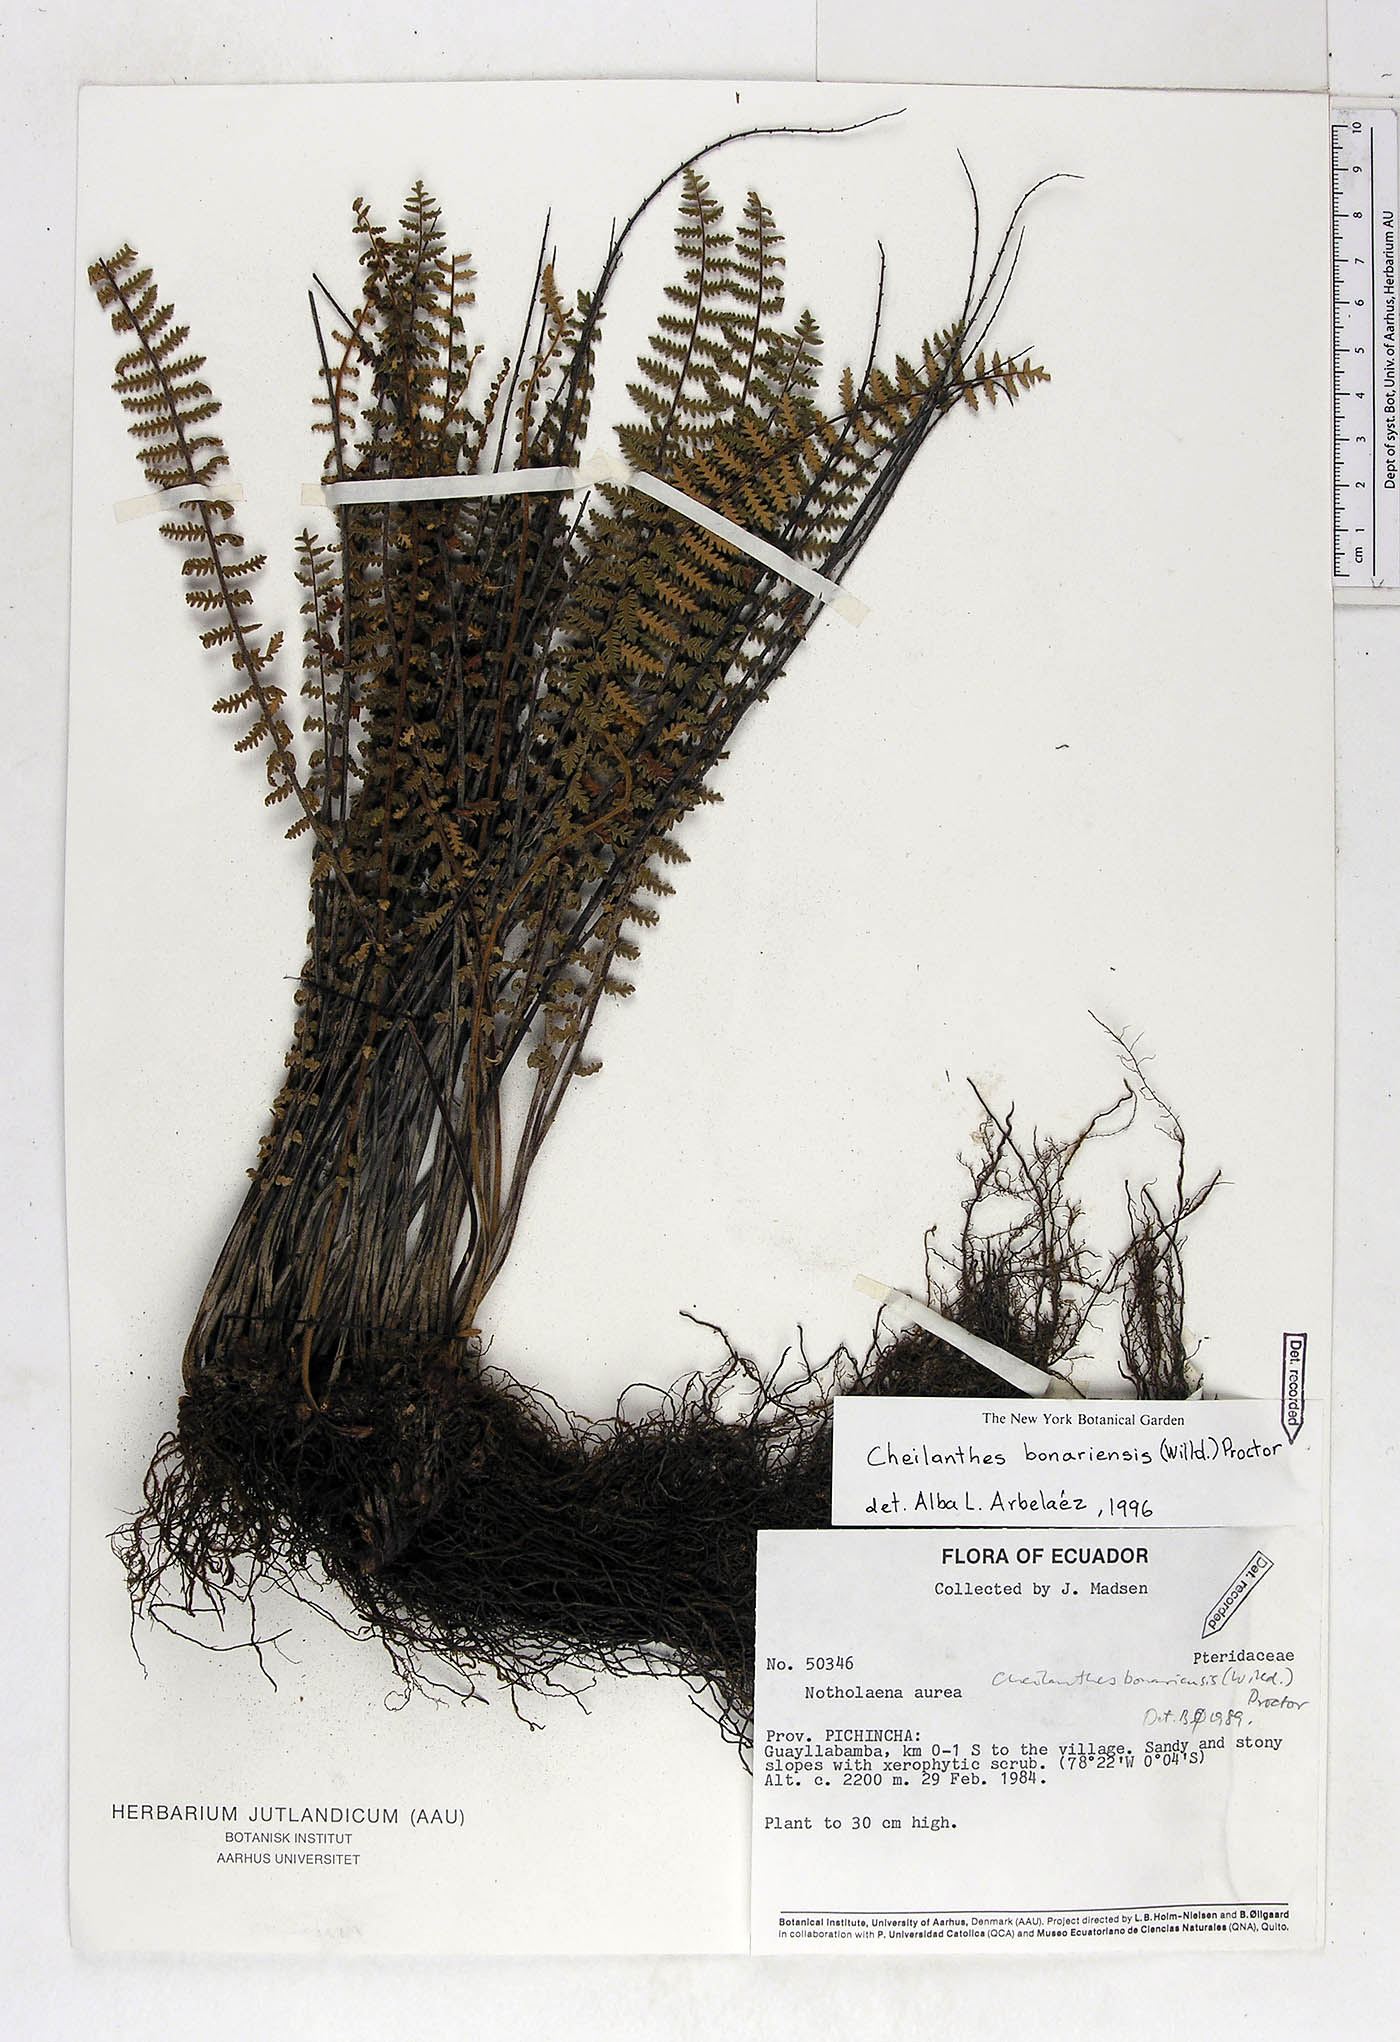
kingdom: Plantae
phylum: Tracheophyta
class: Polypodiopsida
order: Polypodiales
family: Pteridaceae
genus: Myriopteris
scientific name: Myriopteris aurea
